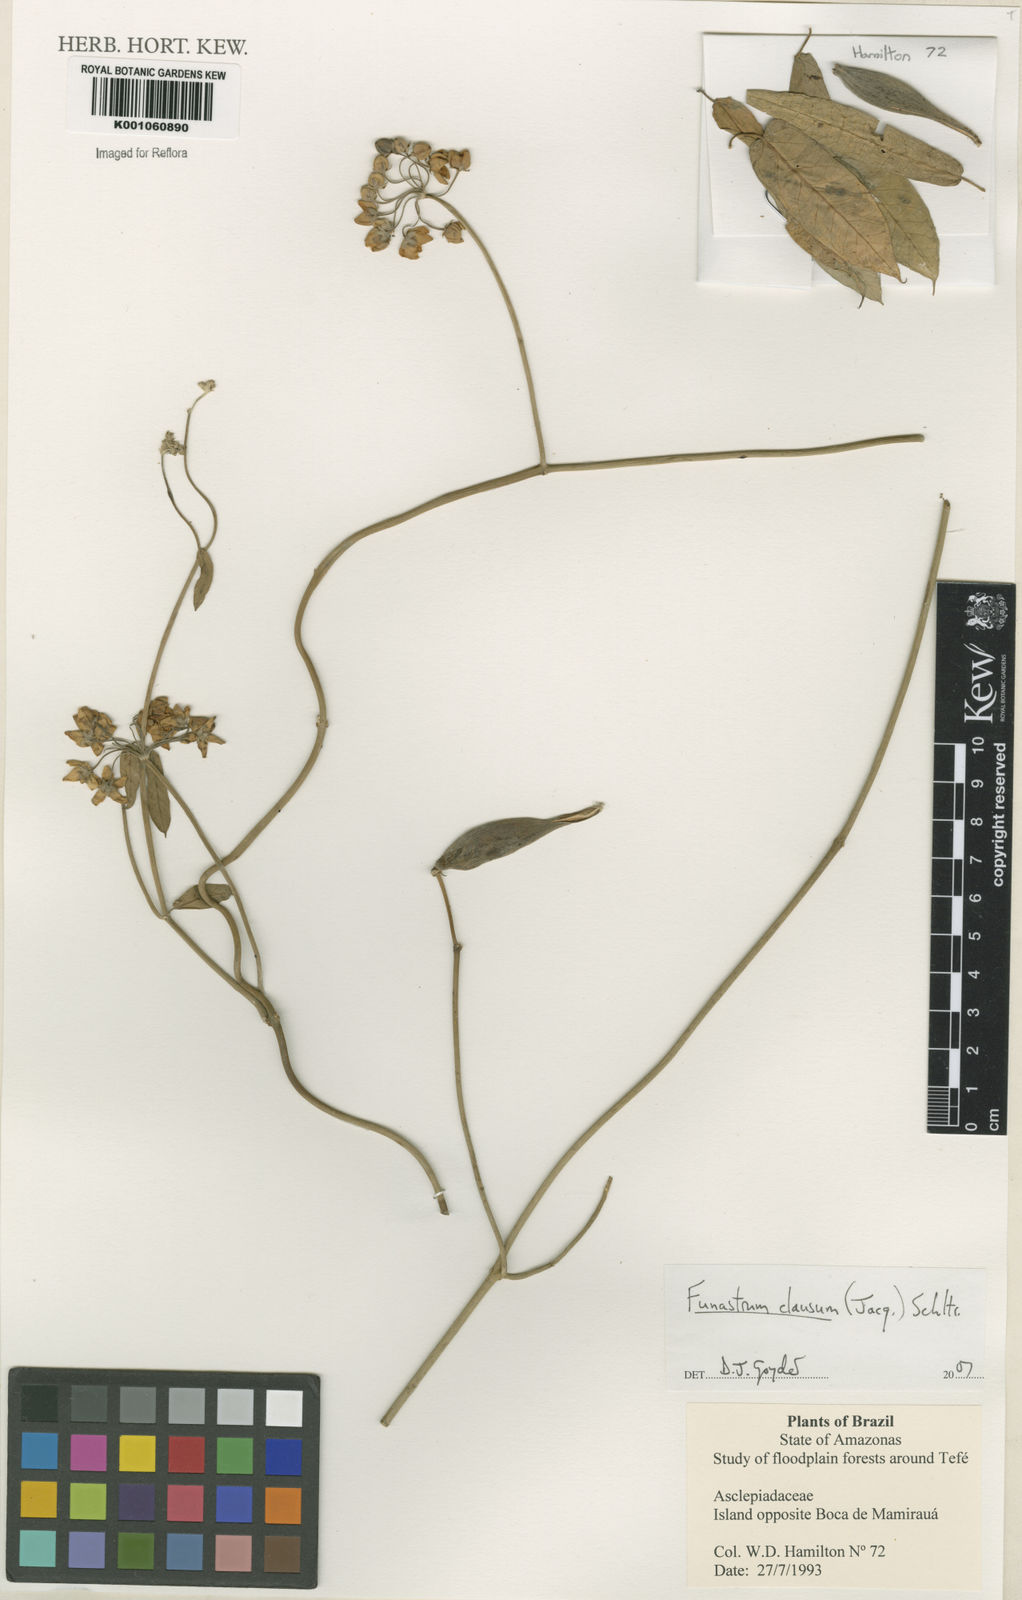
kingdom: Plantae
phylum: Tracheophyta
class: Magnoliopsida
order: Gentianales
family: Apocynaceae
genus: Funastrum
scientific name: Funastrum clausum
